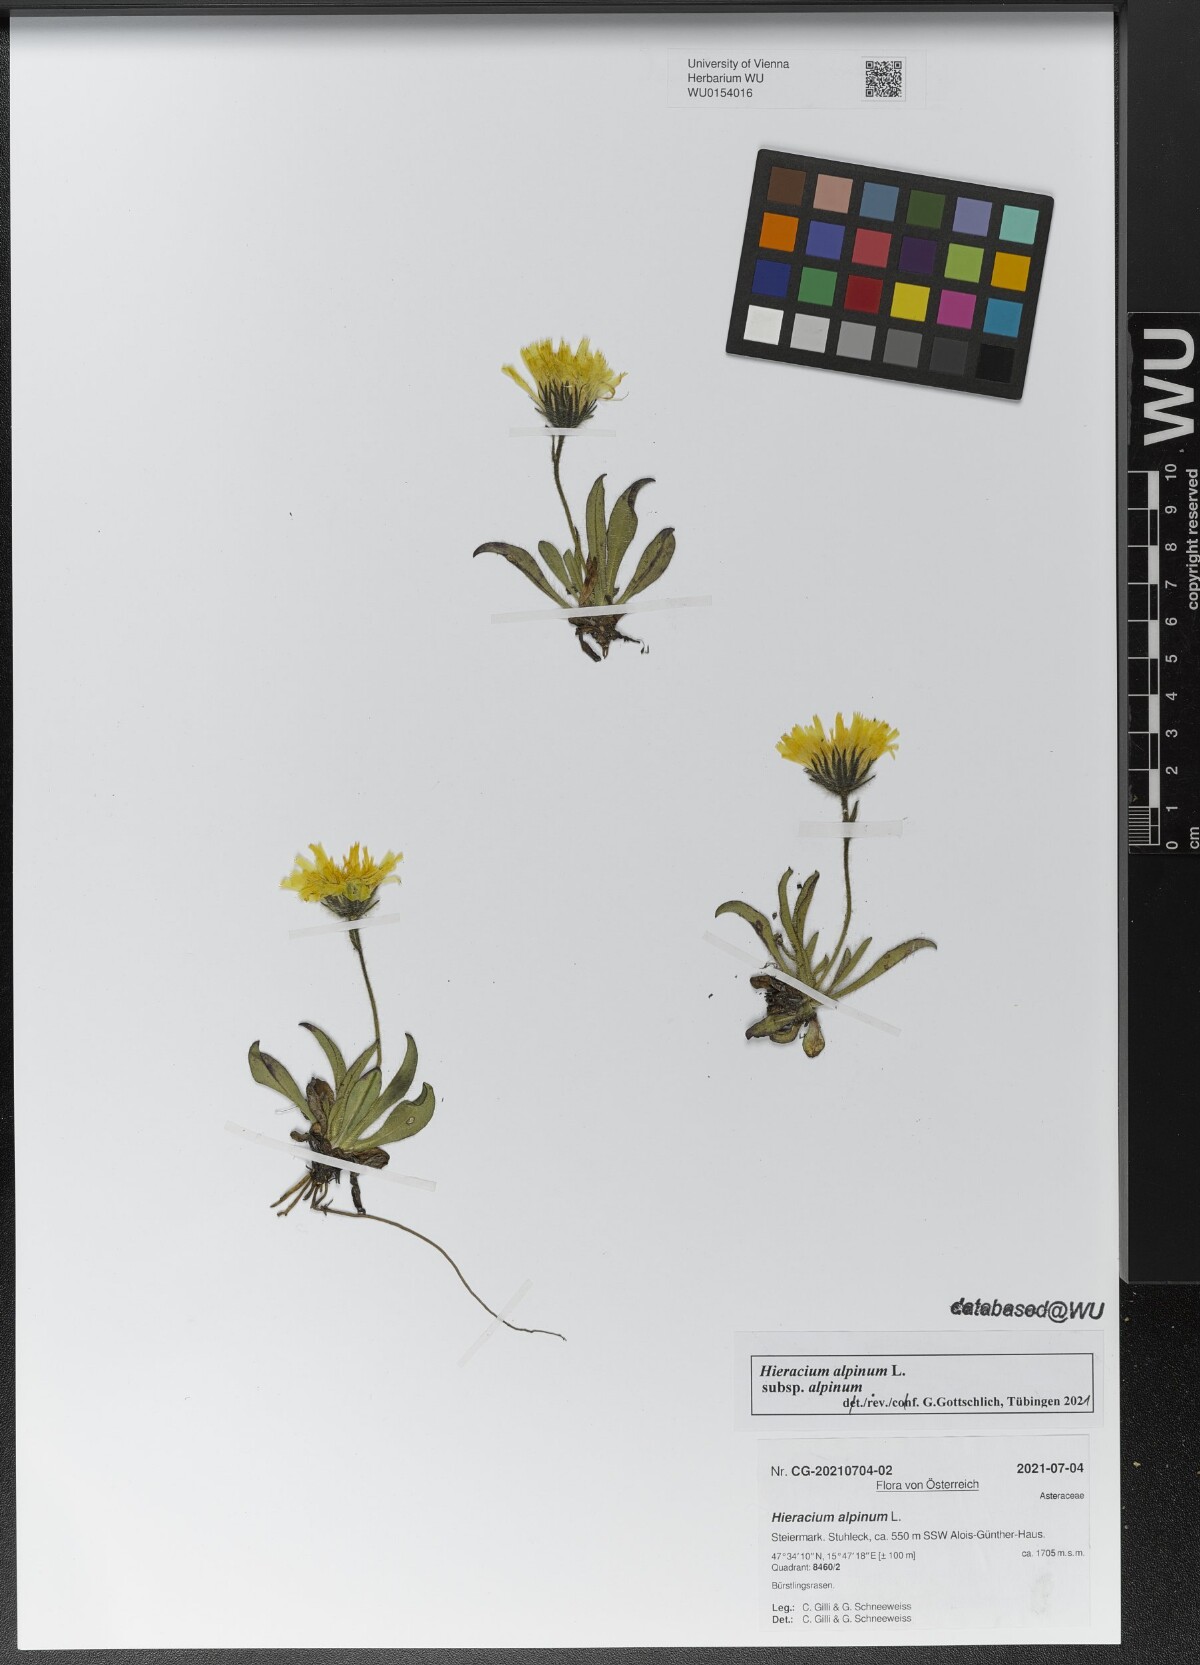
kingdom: Plantae
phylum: Tracheophyta
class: Magnoliopsida
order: Asterales
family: Asteraceae
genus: Hieracium
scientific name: Hieracium alpinum
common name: Alpine hawkweed
